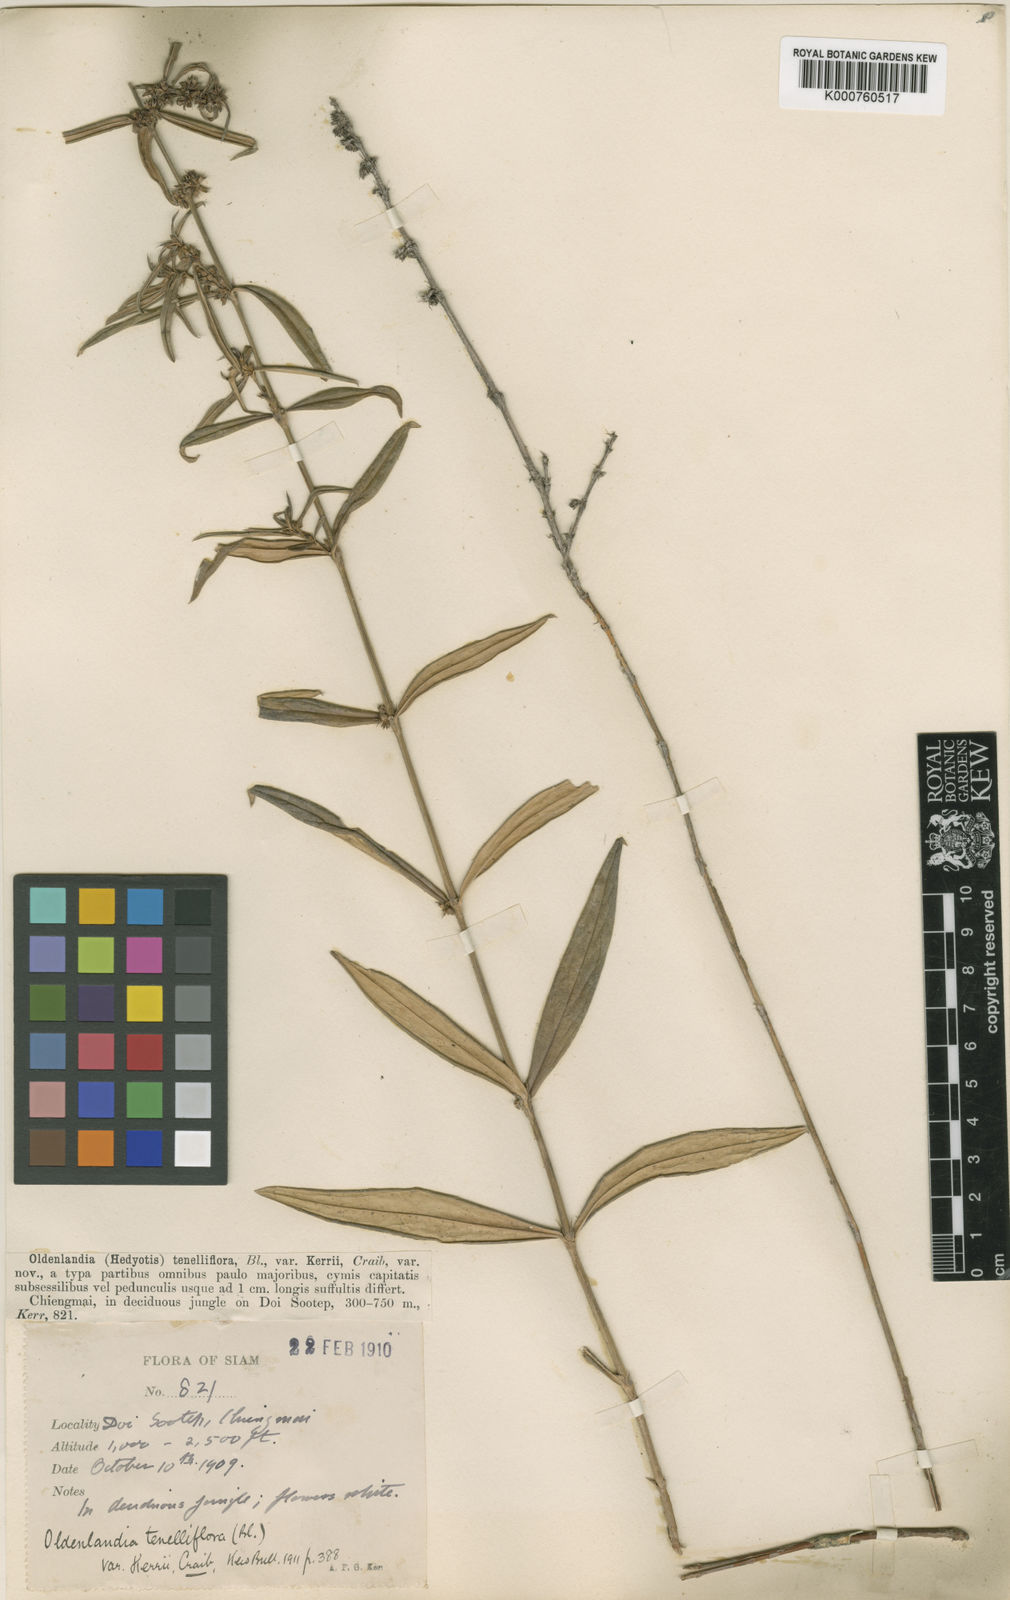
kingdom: Plantae
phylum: Tracheophyta
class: Magnoliopsida
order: Gentianales
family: Rubiaceae
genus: Scleromitrion
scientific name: Scleromitrion tenelliflorum
